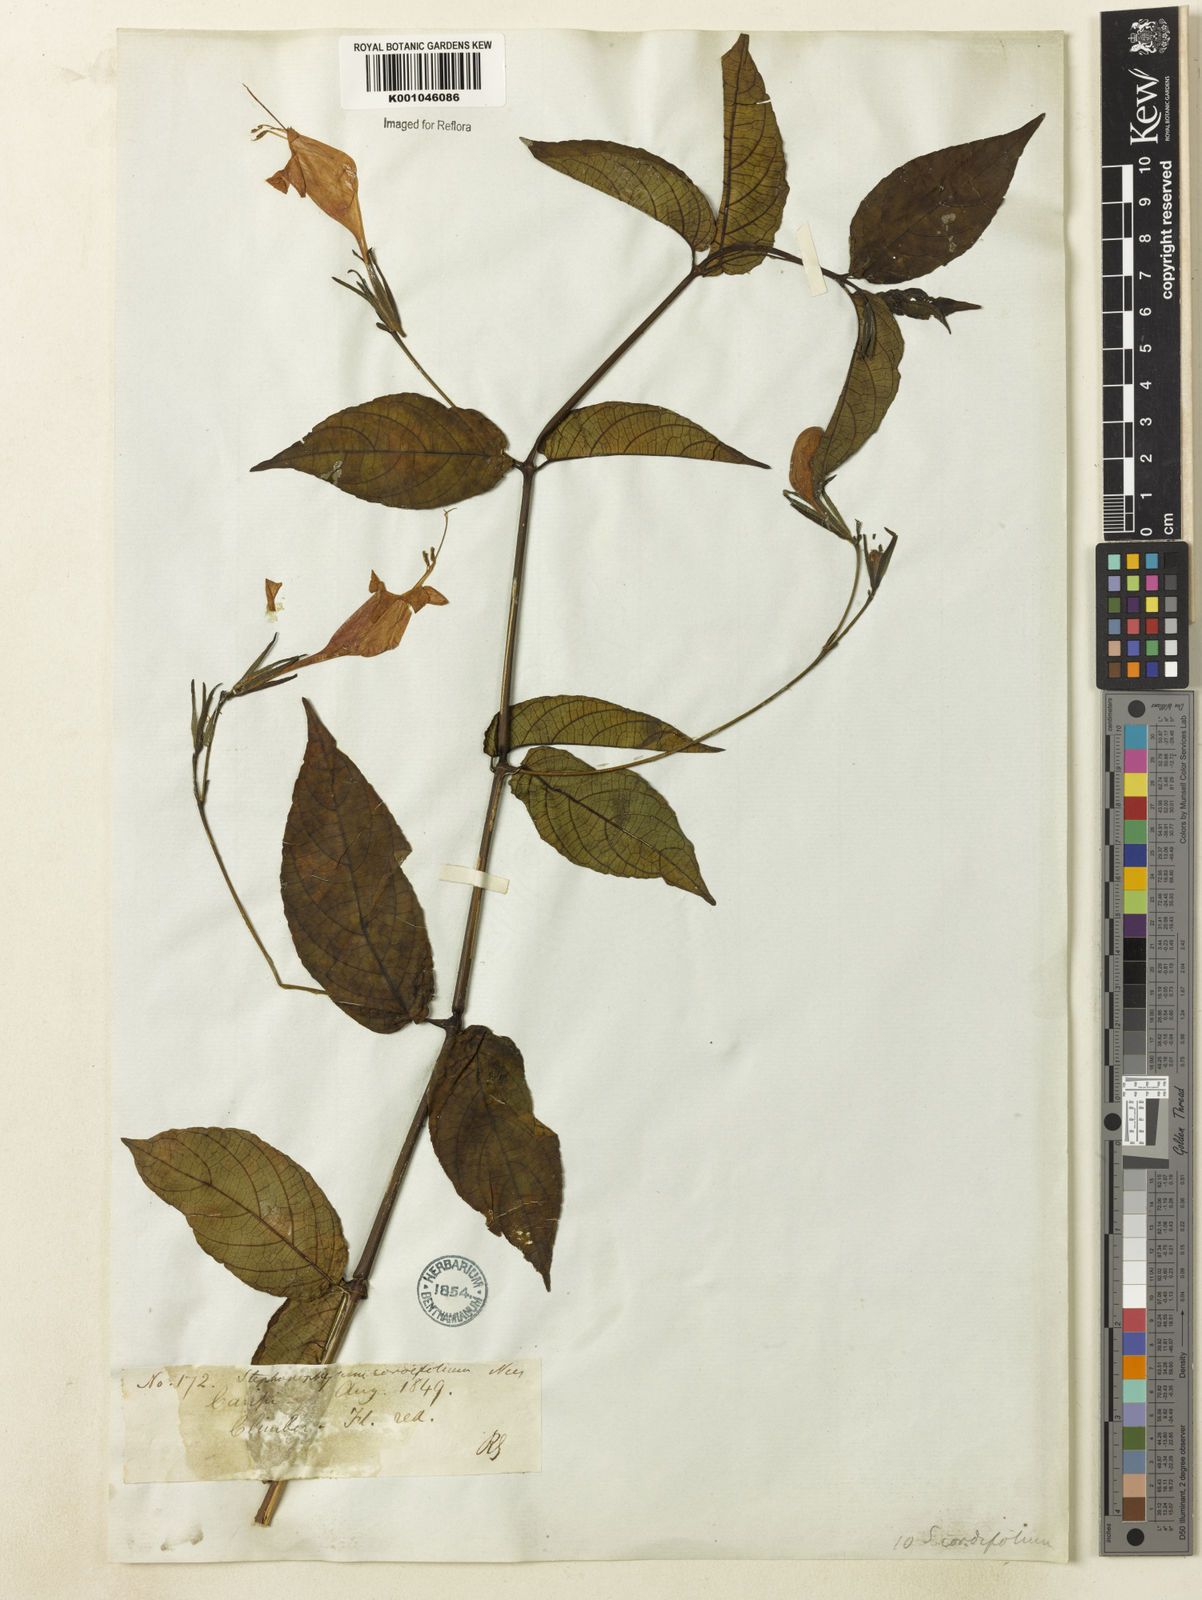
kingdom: Plantae
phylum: Tracheophyta
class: Magnoliopsida
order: Lamiales
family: Acanthaceae
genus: Ruellia
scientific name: Ruellia inflata
